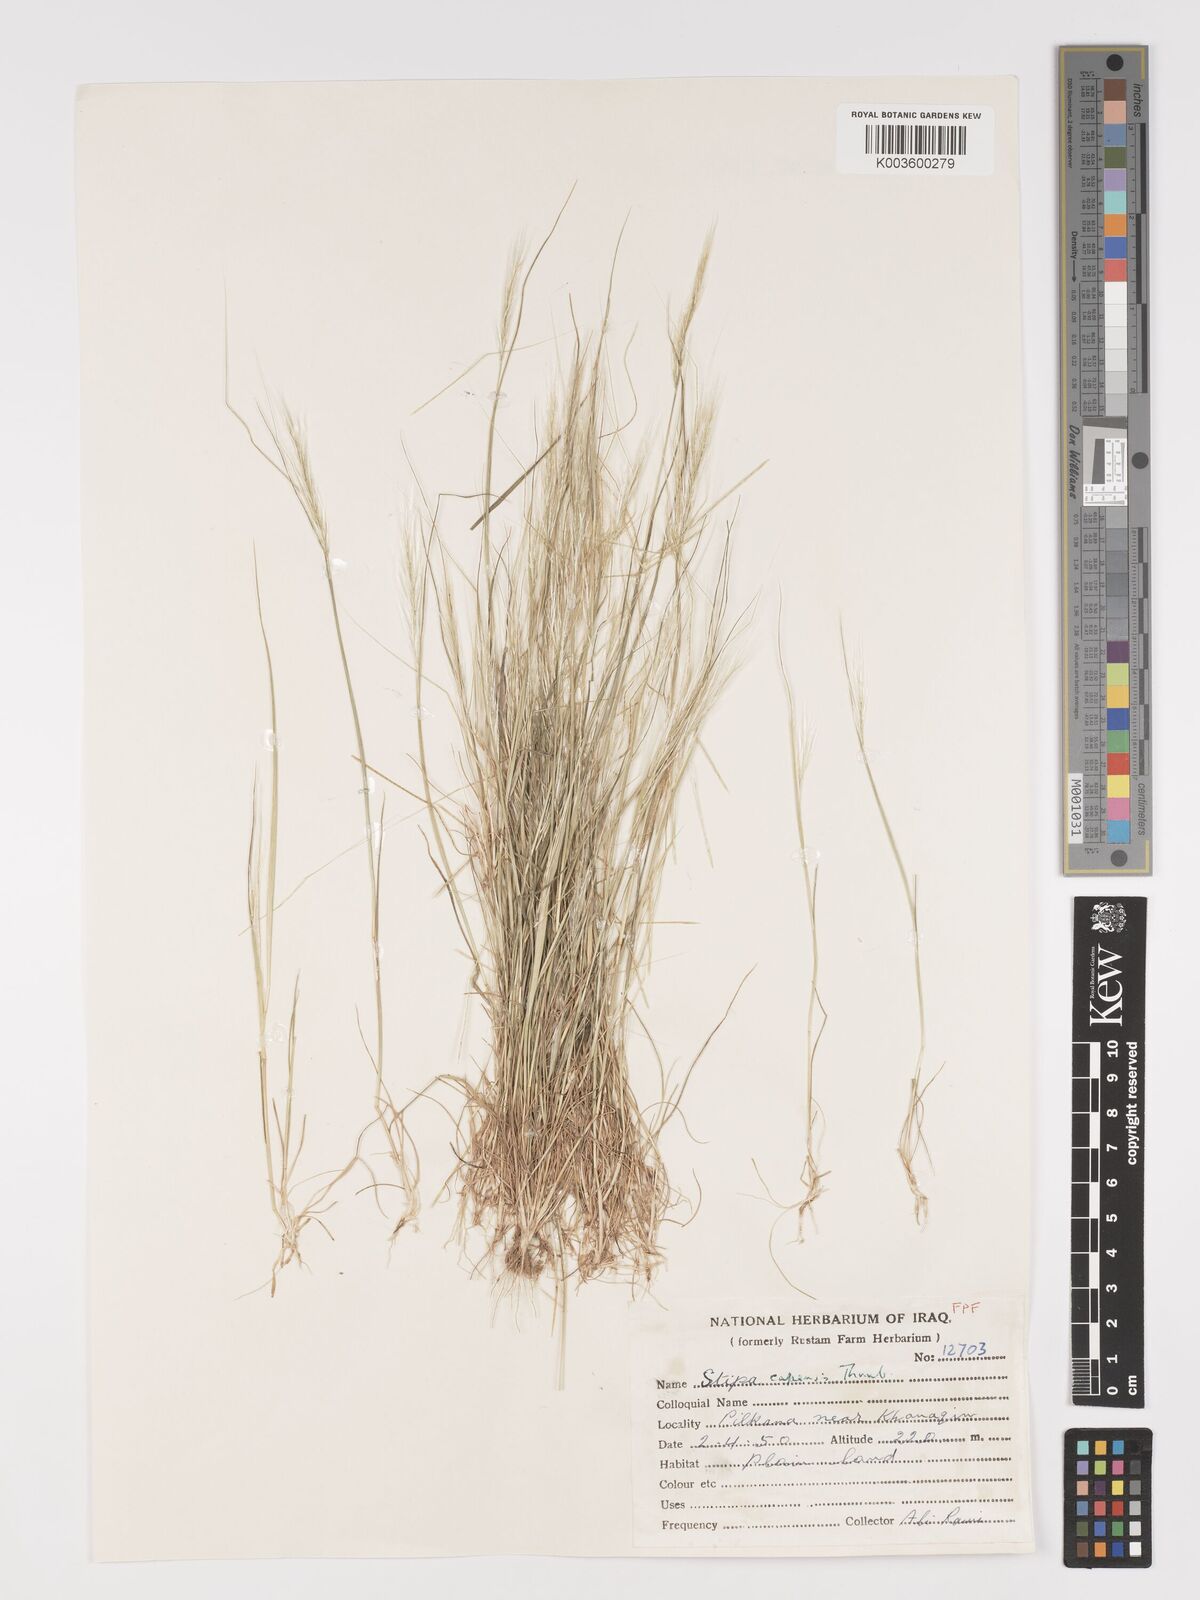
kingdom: Plantae
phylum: Tracheophyta
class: Liliopsida
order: Poales
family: Poaceae
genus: Stipellula
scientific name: Stipellula capensis
